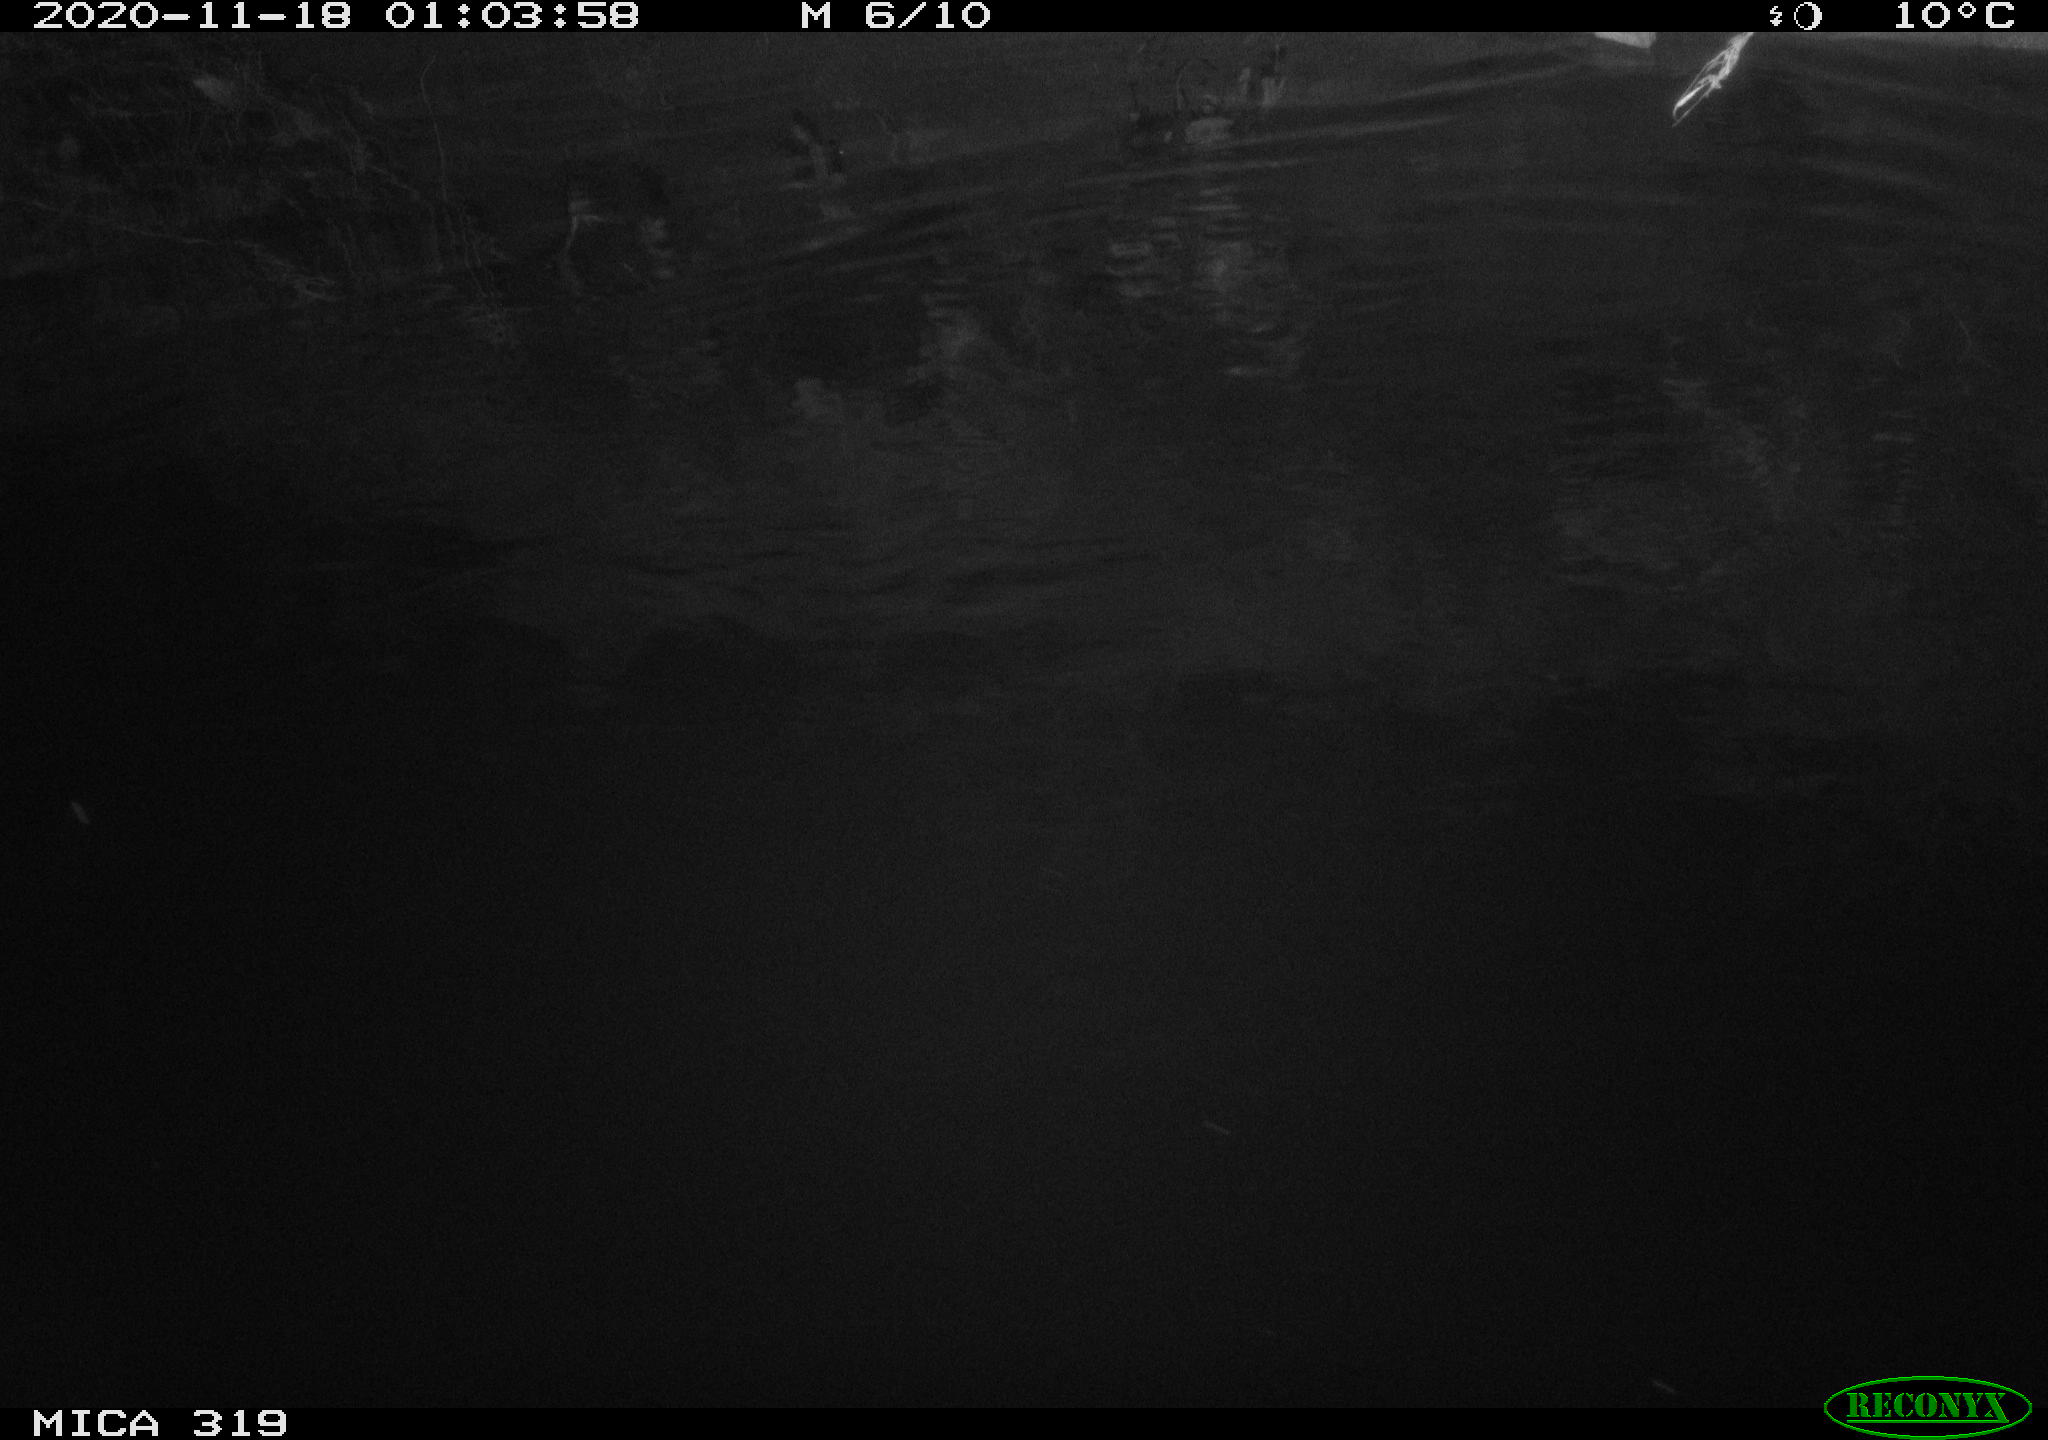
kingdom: Animalia
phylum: Chordata
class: Mammalia
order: Rodentia
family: Muridae
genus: Rattus
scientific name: Rattus norvegicus
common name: Brown rat
